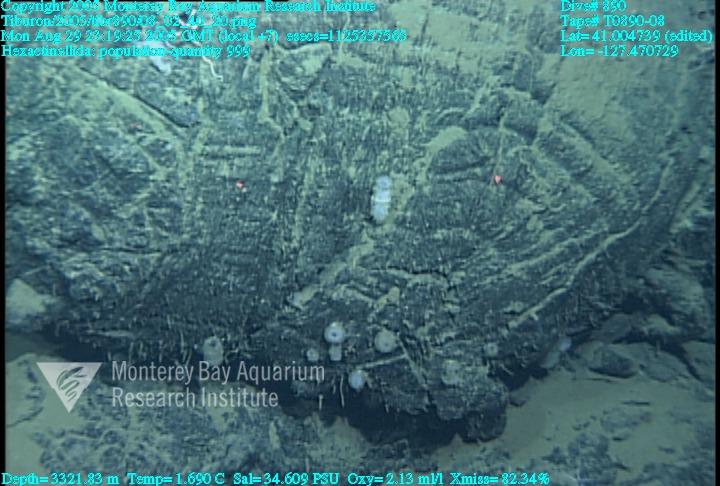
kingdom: Animalia
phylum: Porifera
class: Hexactinellida
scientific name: Hexactinellida
